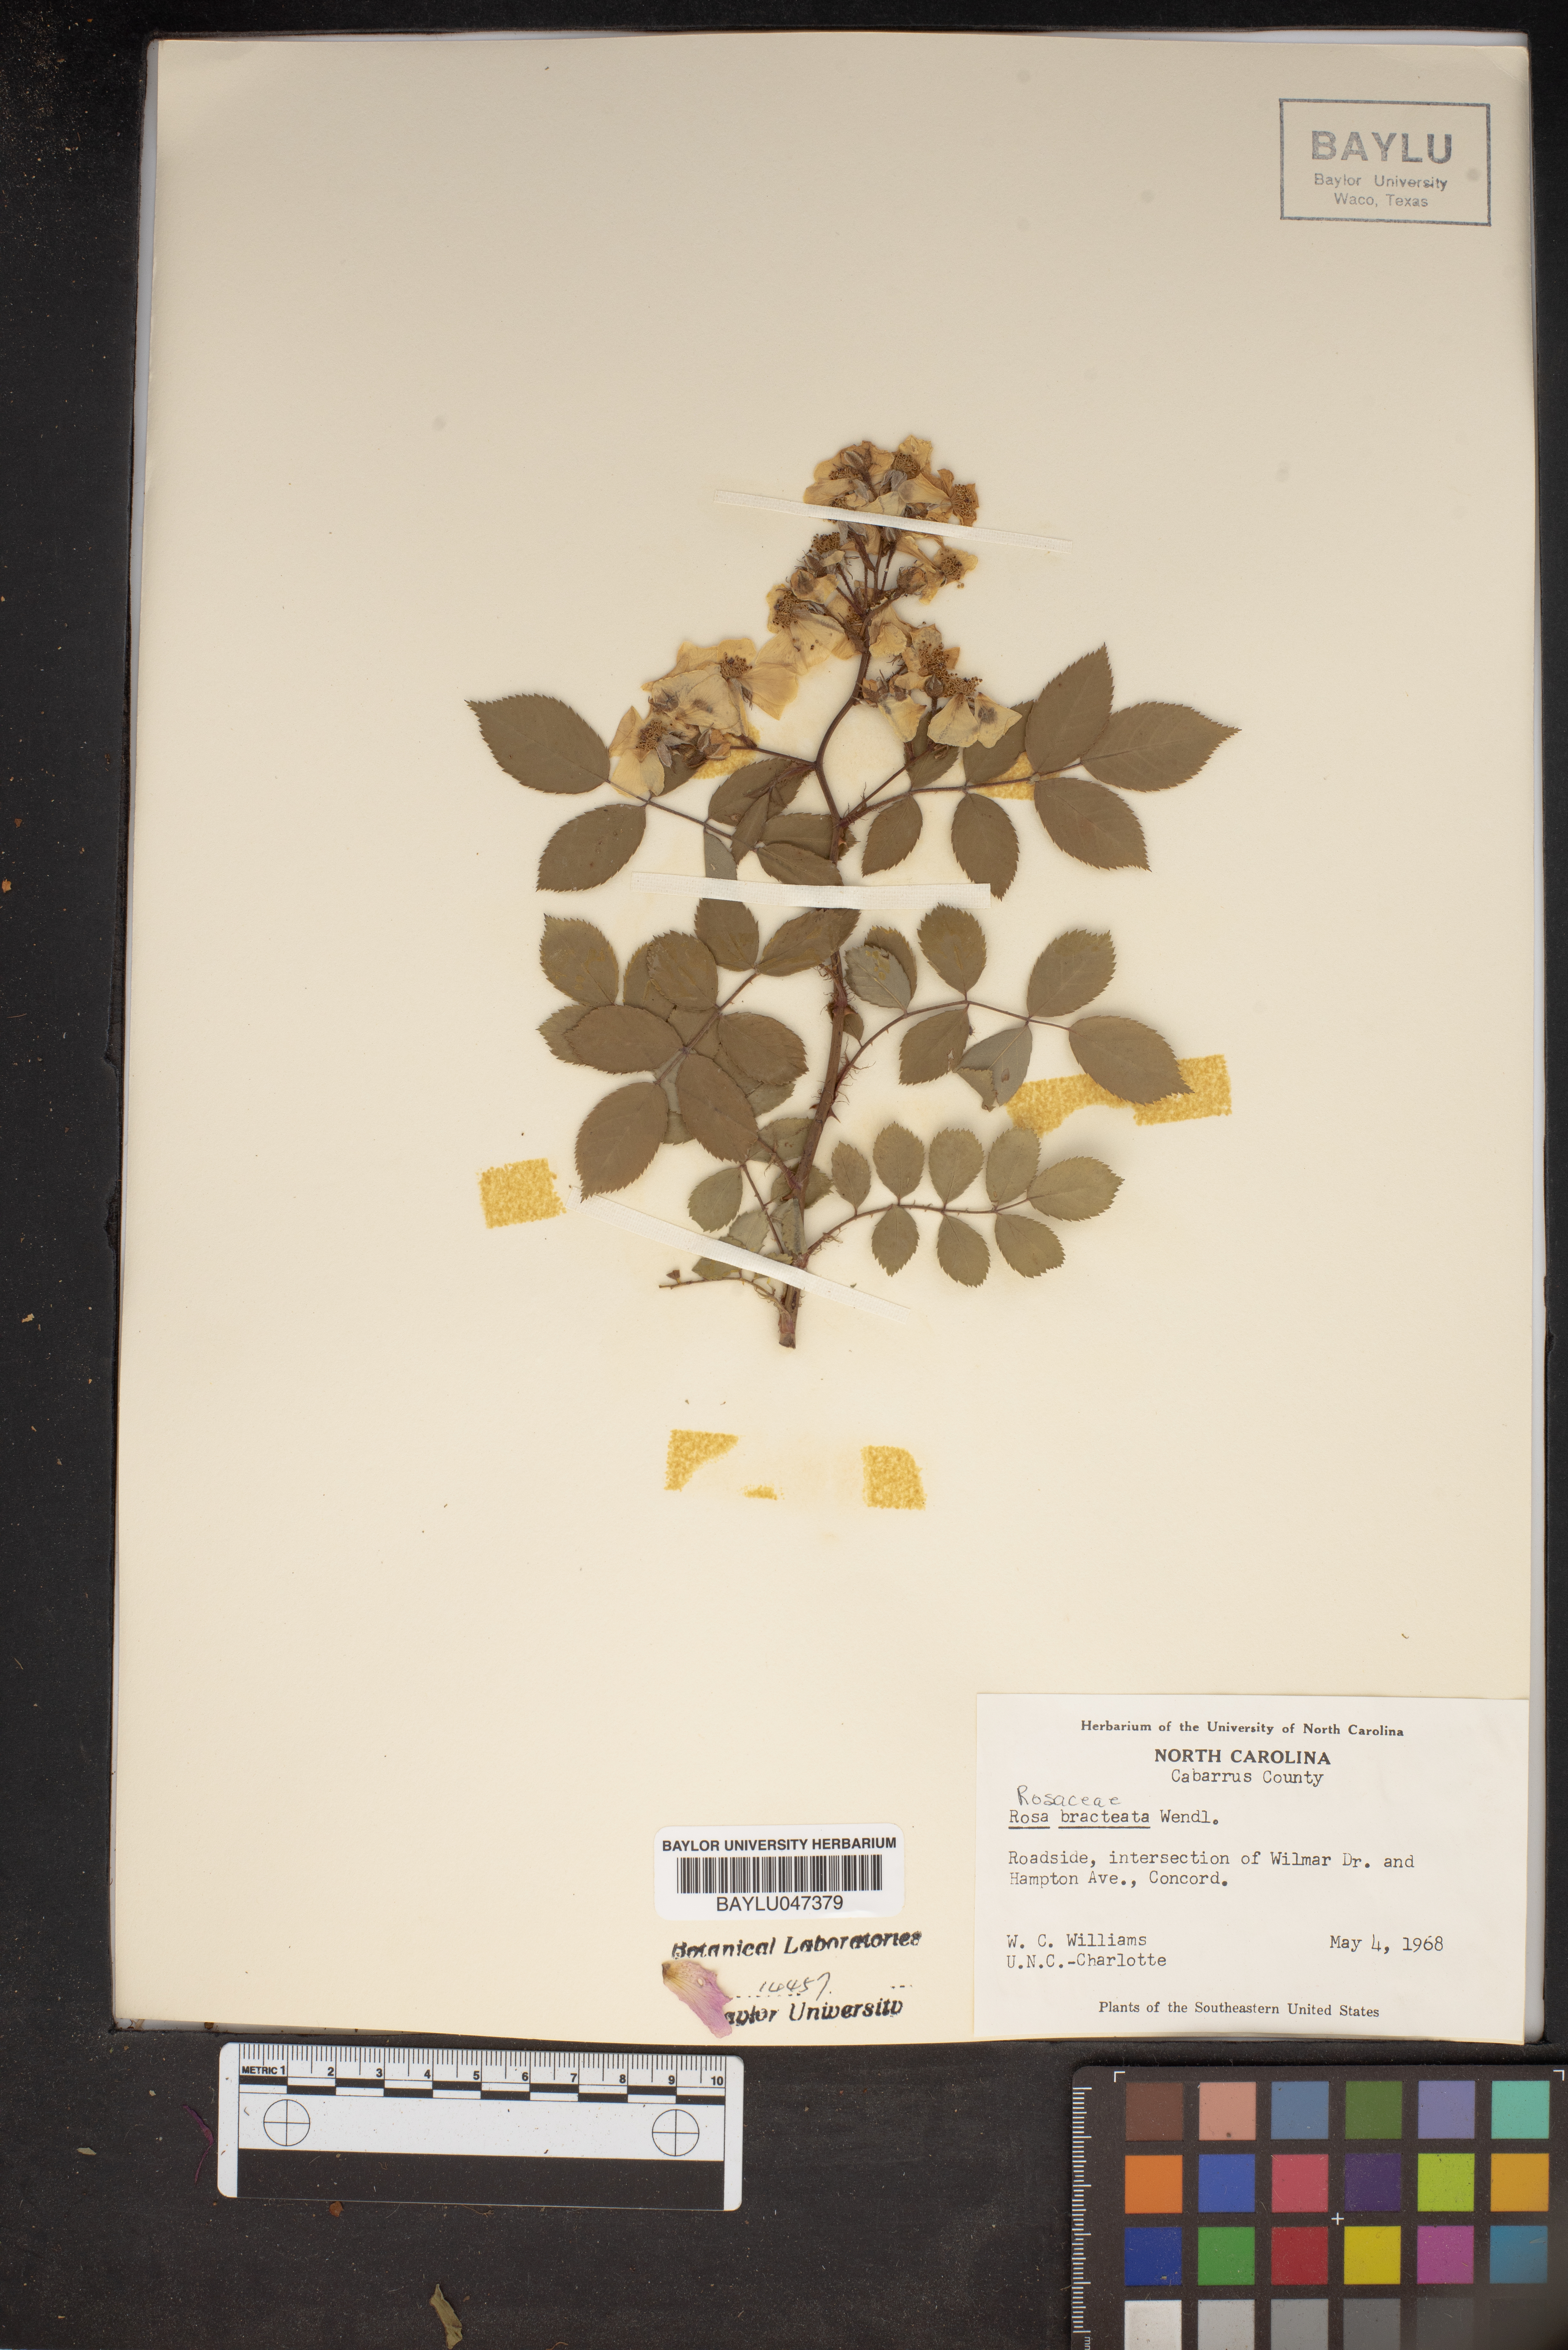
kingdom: Plantae
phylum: Tracheophyta
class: Magnoliopsida
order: Rosales
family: Rosaceae
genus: Rosa
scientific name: Rosa bracteata
